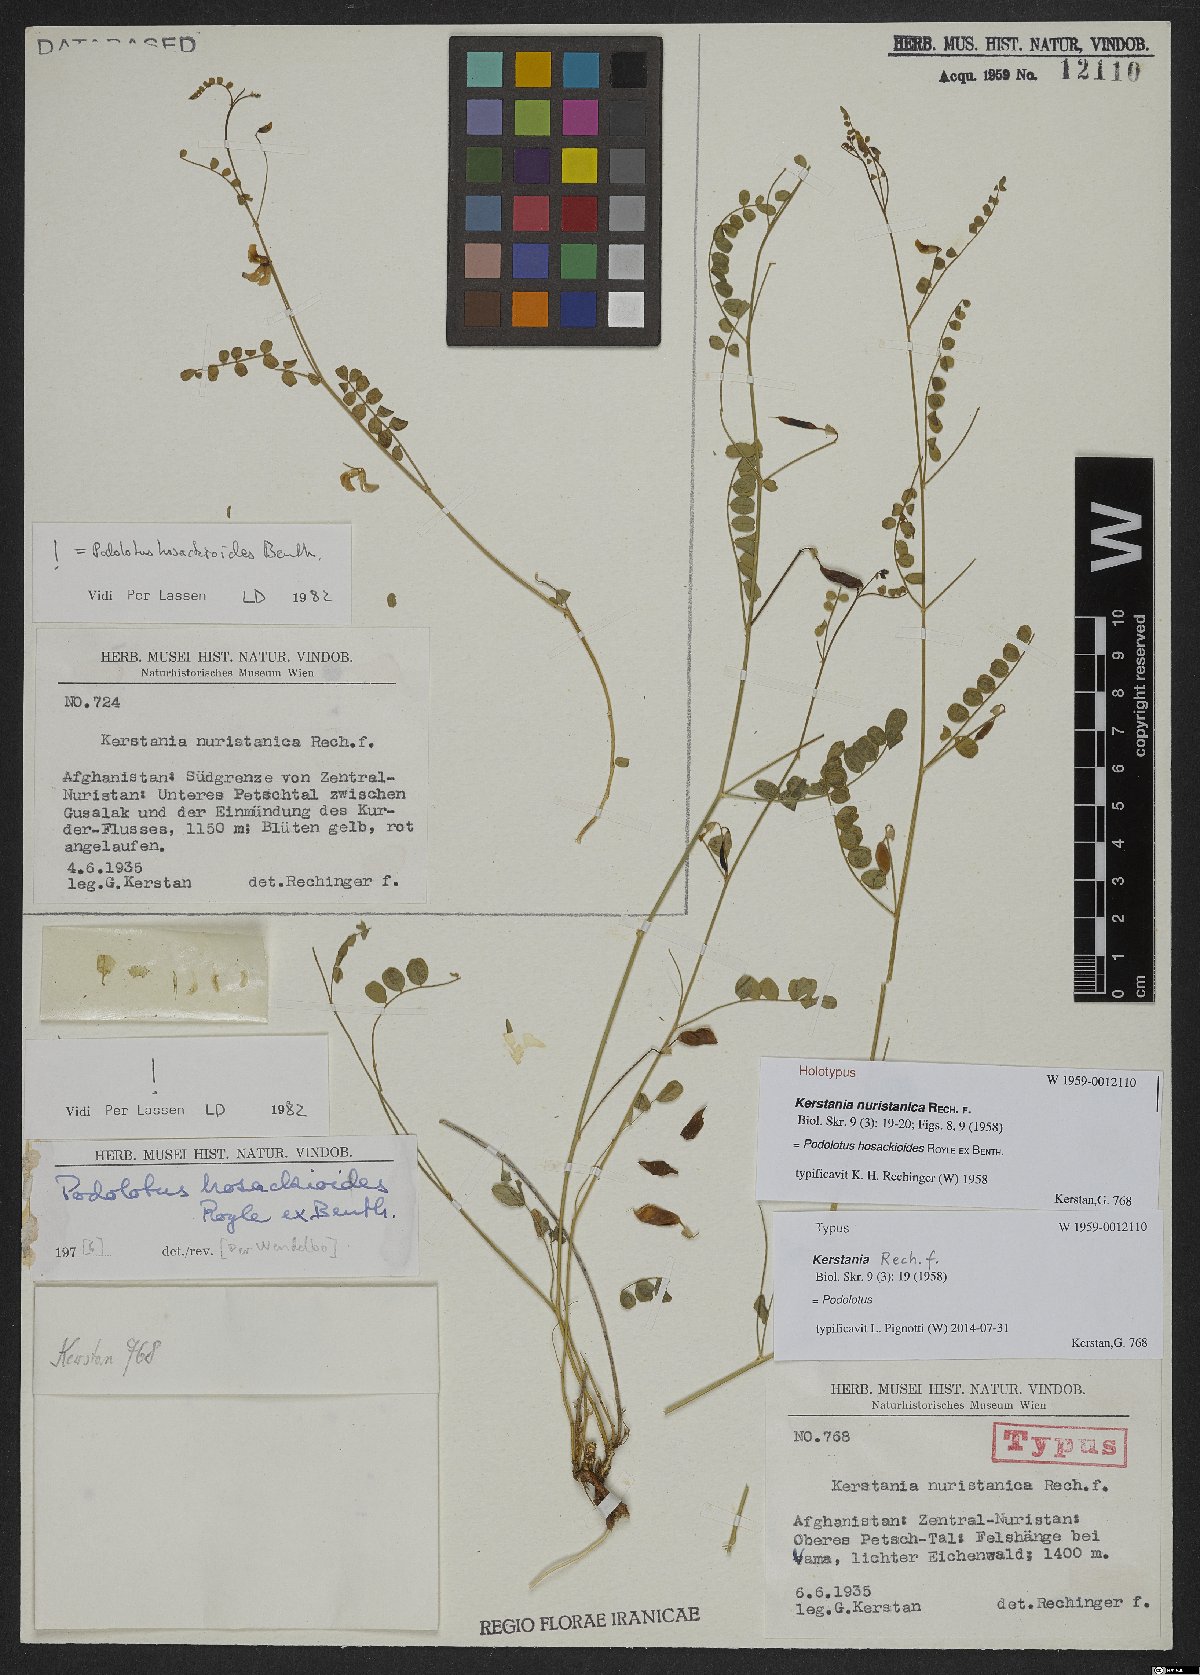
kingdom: Plantae
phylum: Tracheophyta
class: Magnoliopsida
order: Fabales
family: Fabaceae
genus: Podolotus
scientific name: Podolotus hosackioides
